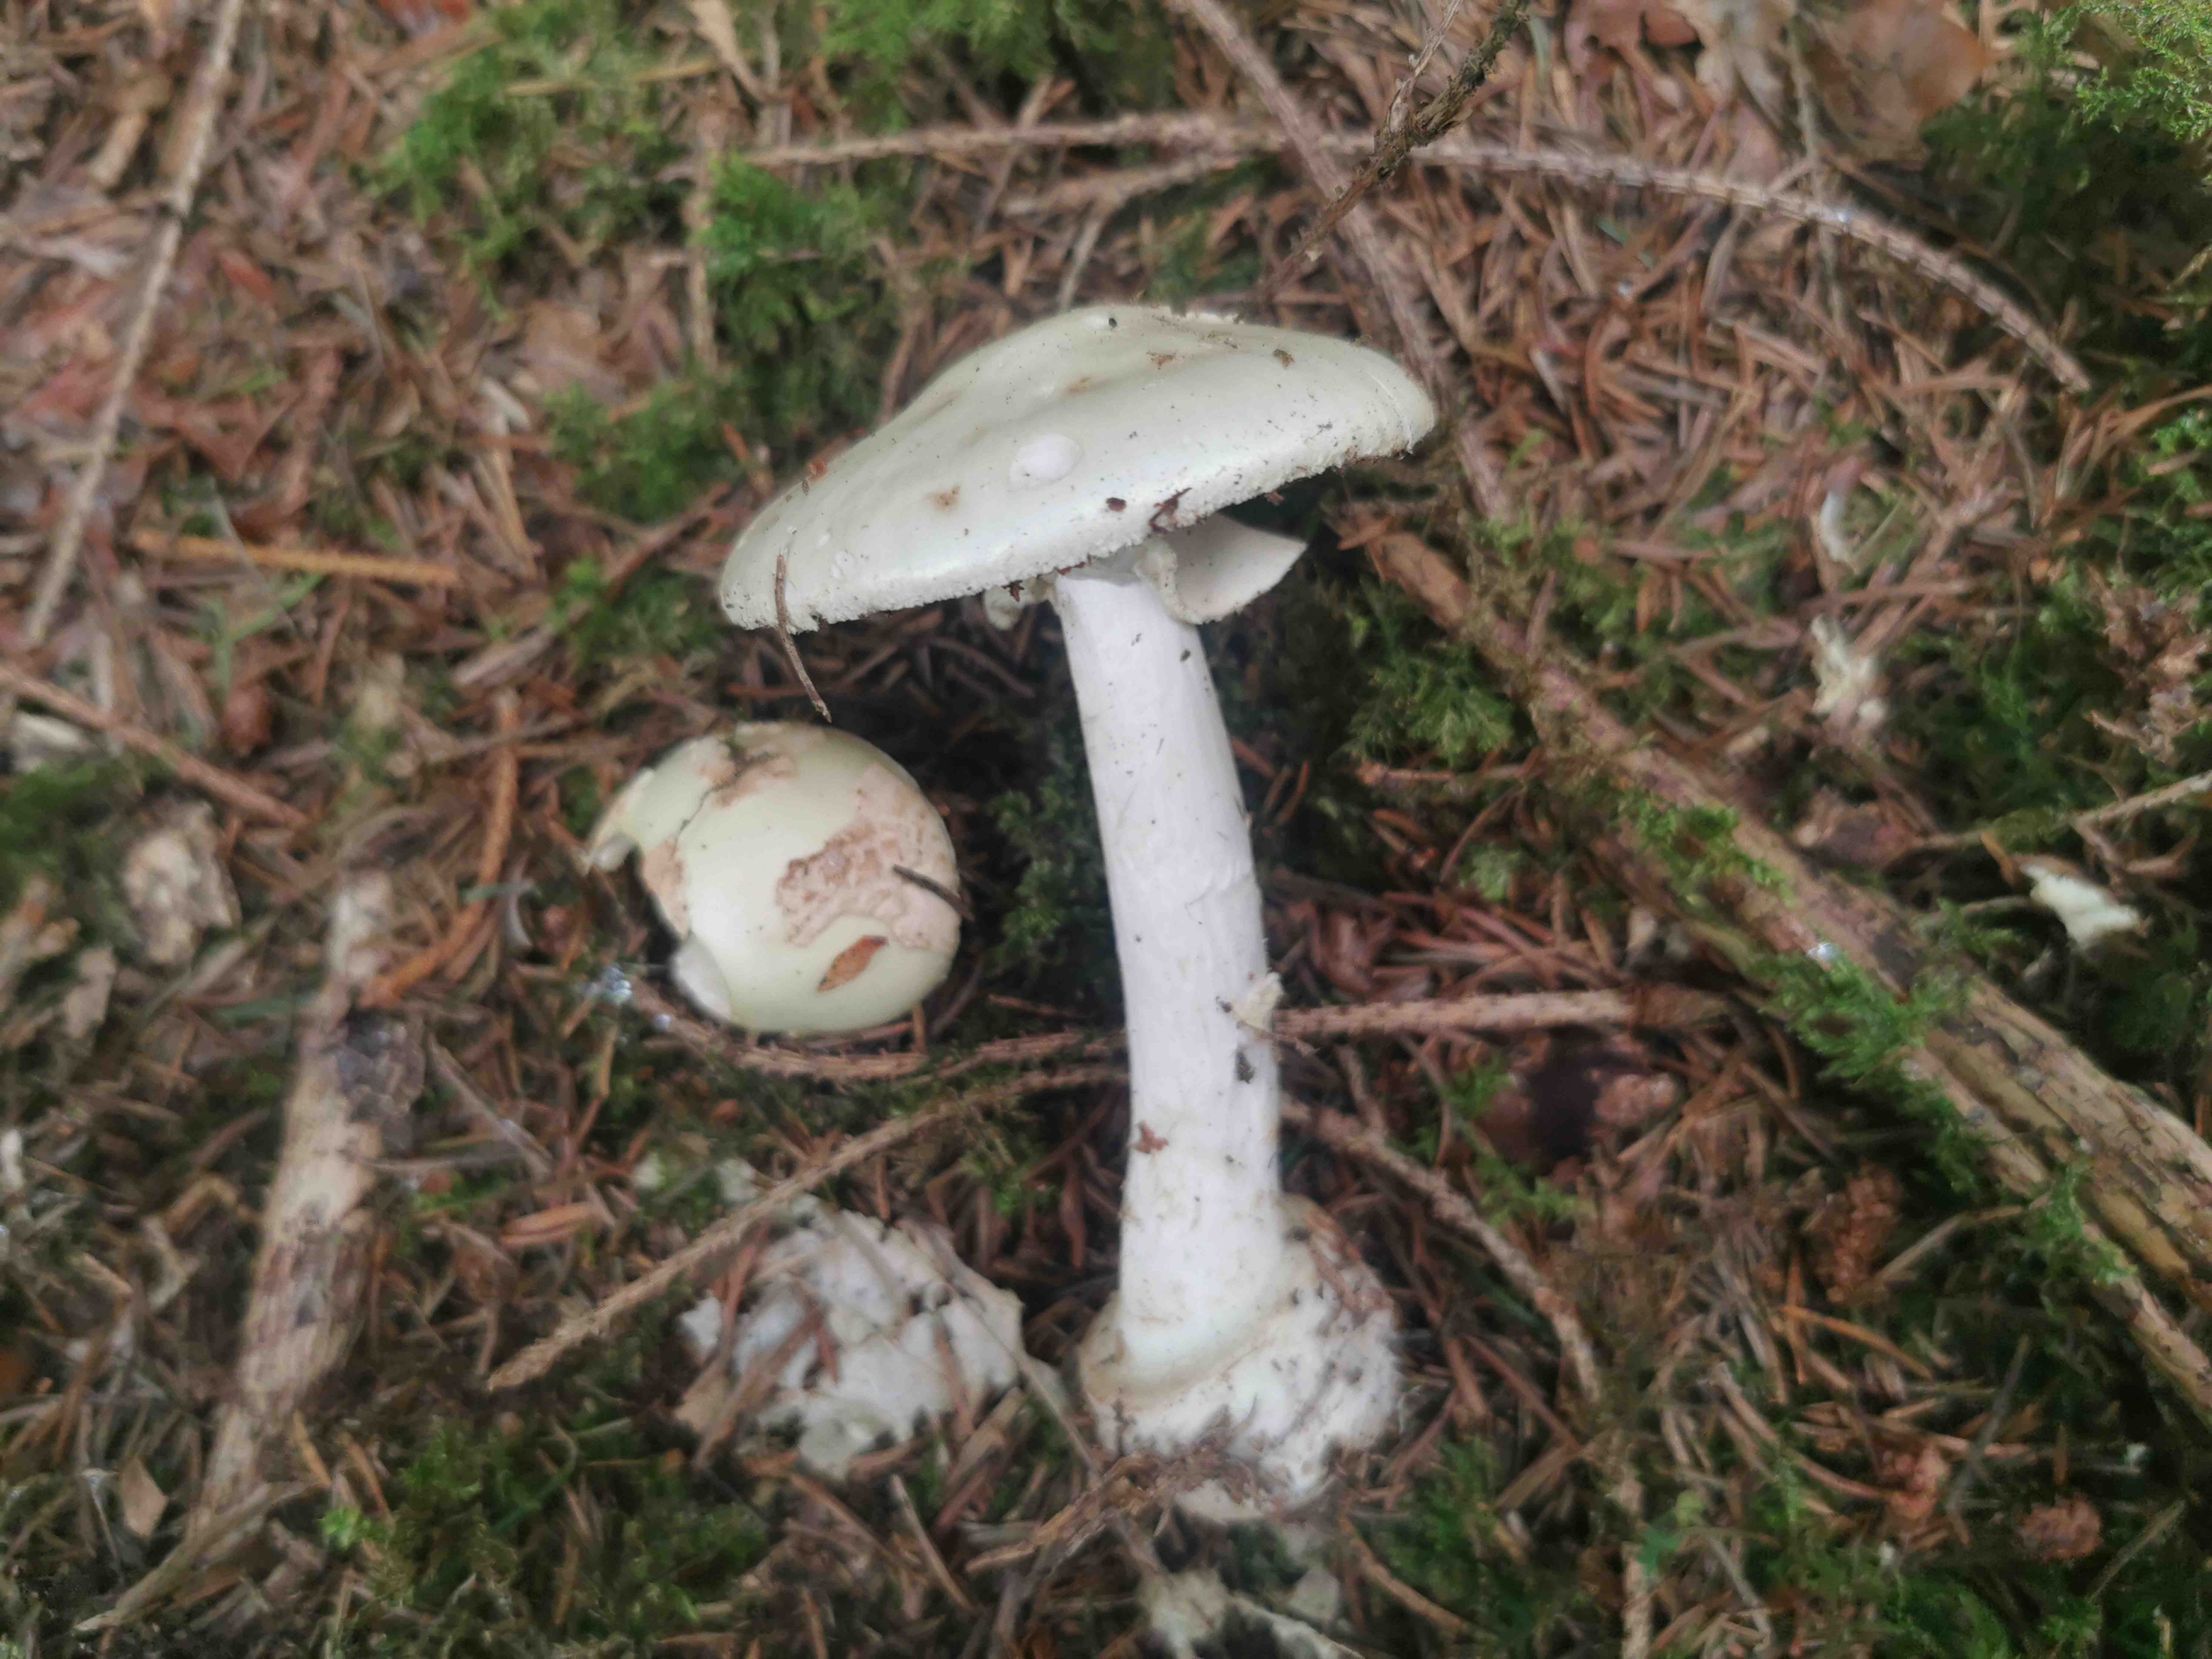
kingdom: Fungi
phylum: Basidiomycota
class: Agaricomycetes
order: Agaricales
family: Amanitaceae
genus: Amanita
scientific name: Amanita citrina
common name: kugleknoldet fluesvamp
